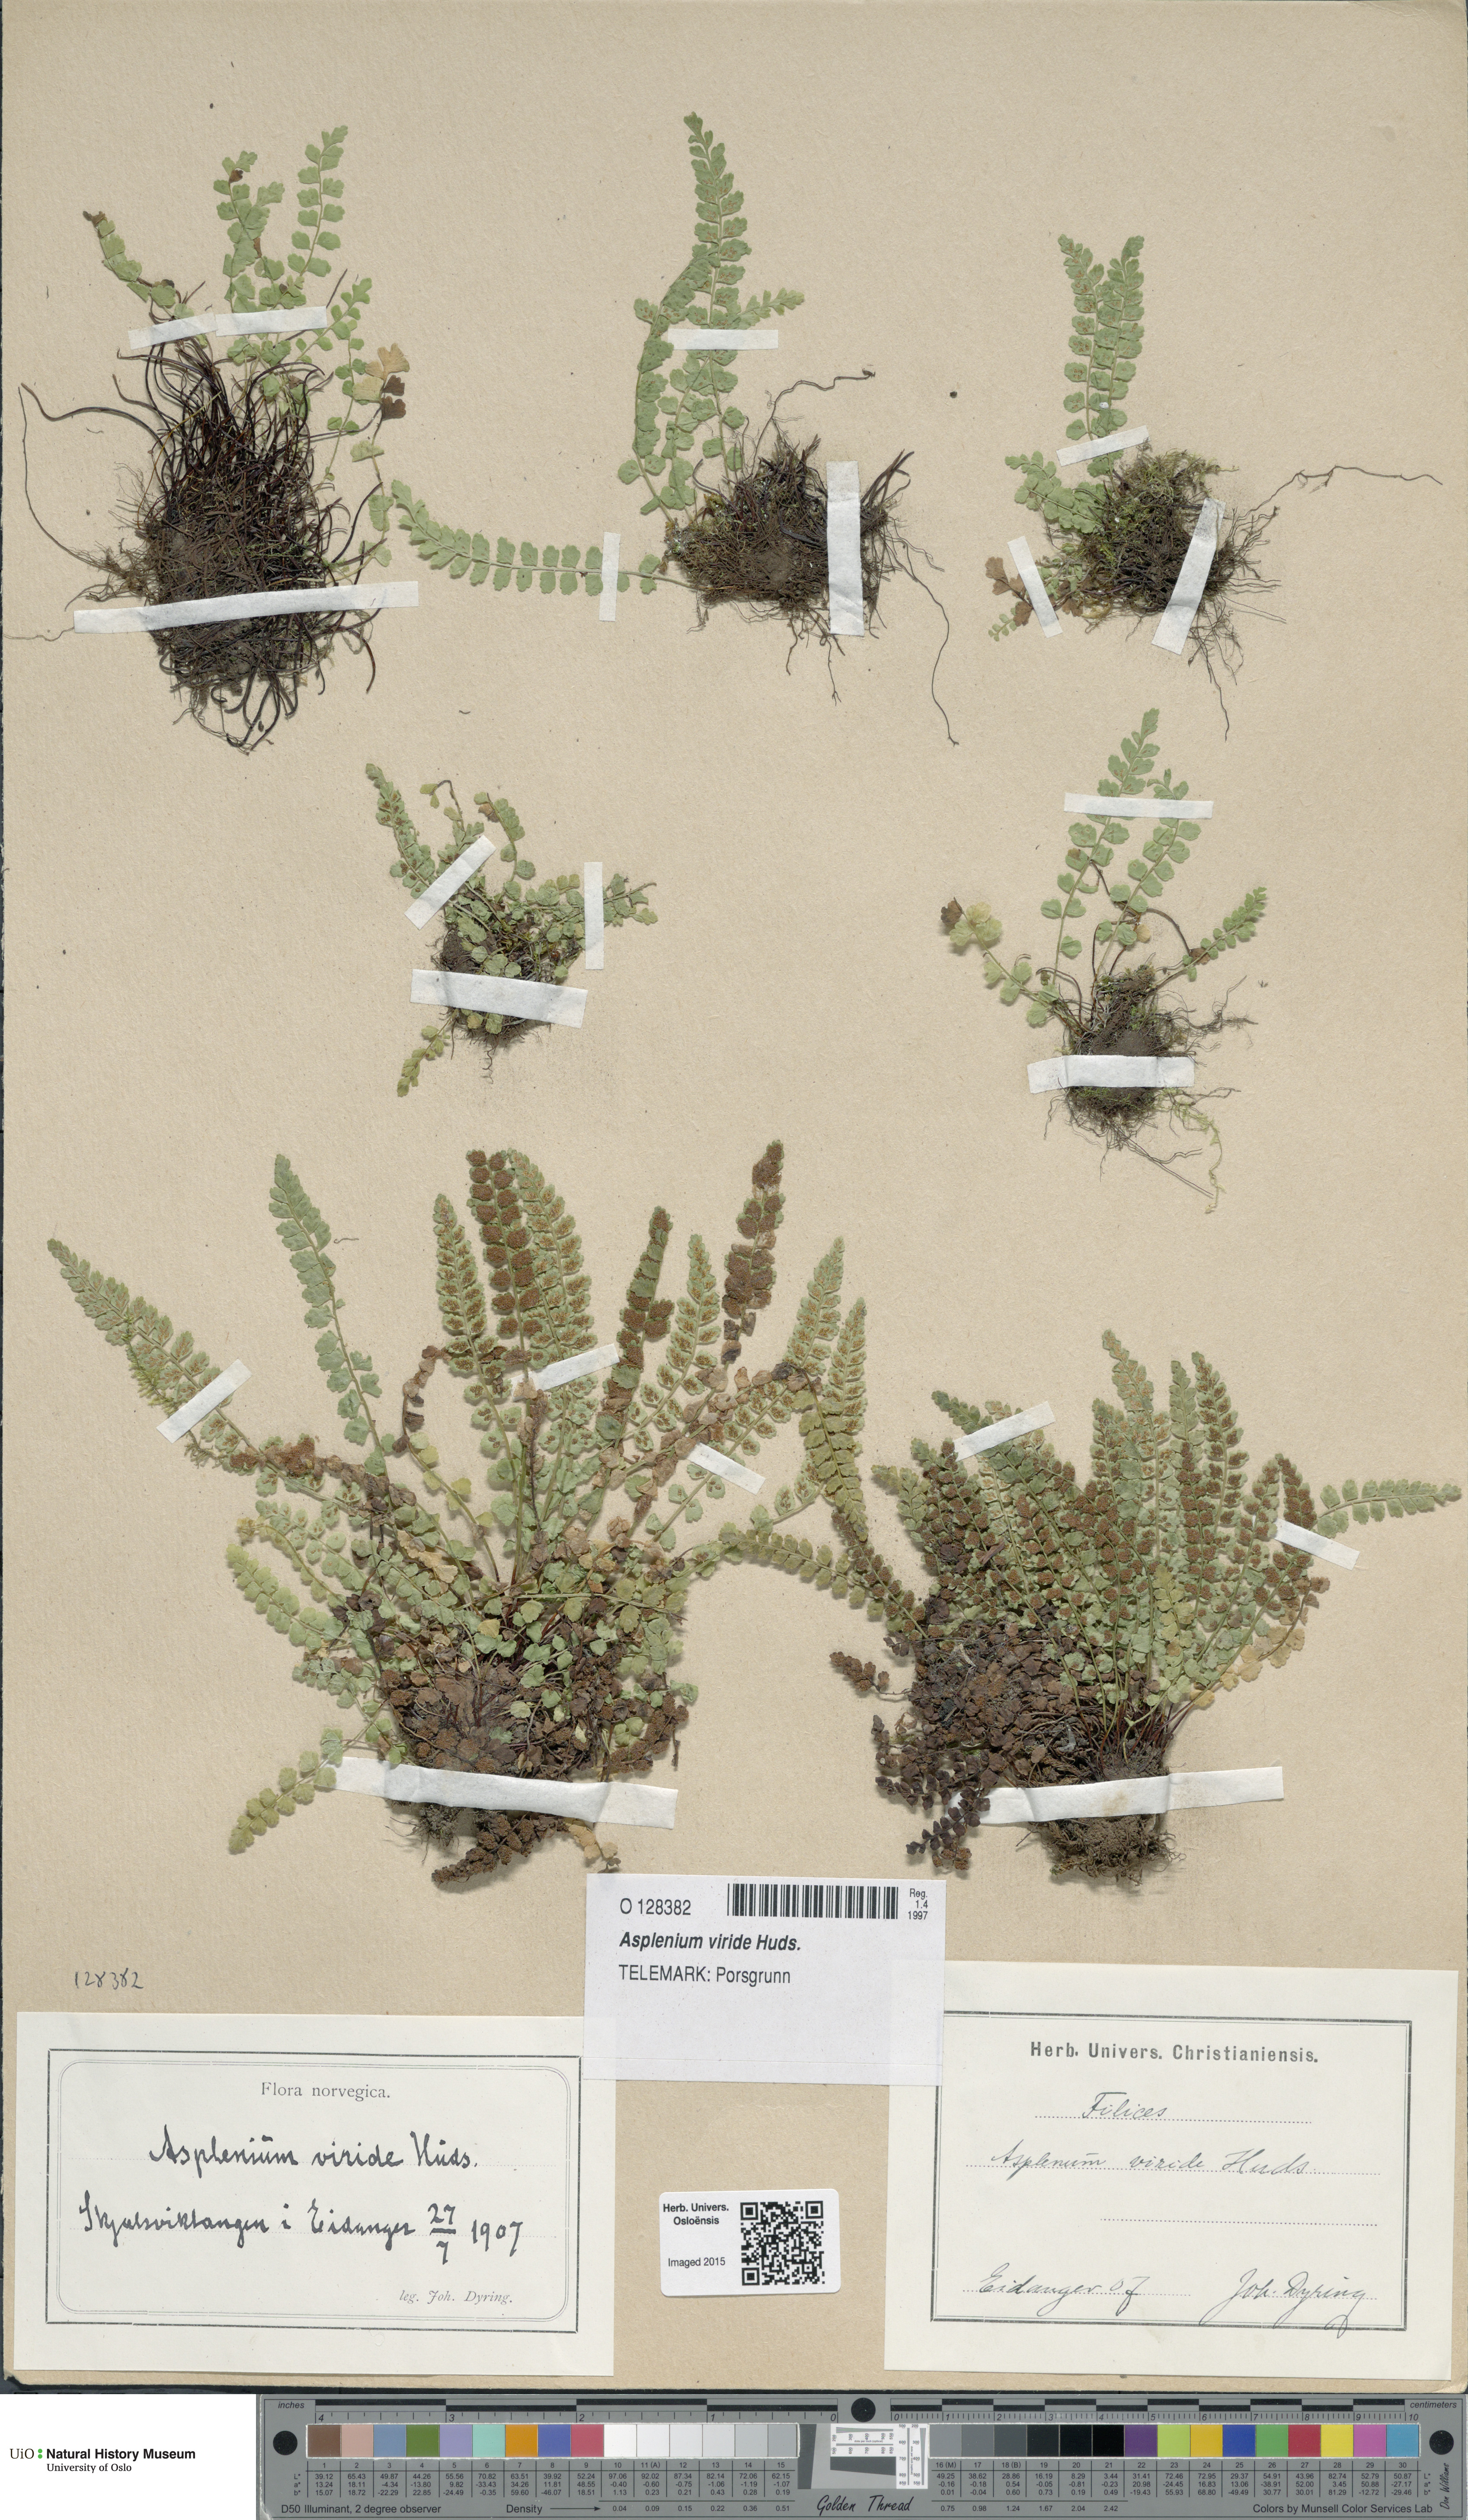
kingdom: Plantae
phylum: Tracheophyta
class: Polypodiopsida
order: Polypodiales
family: Aspleniaceae
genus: Asplenium
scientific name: Asplenium viride
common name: Green spleenwort
